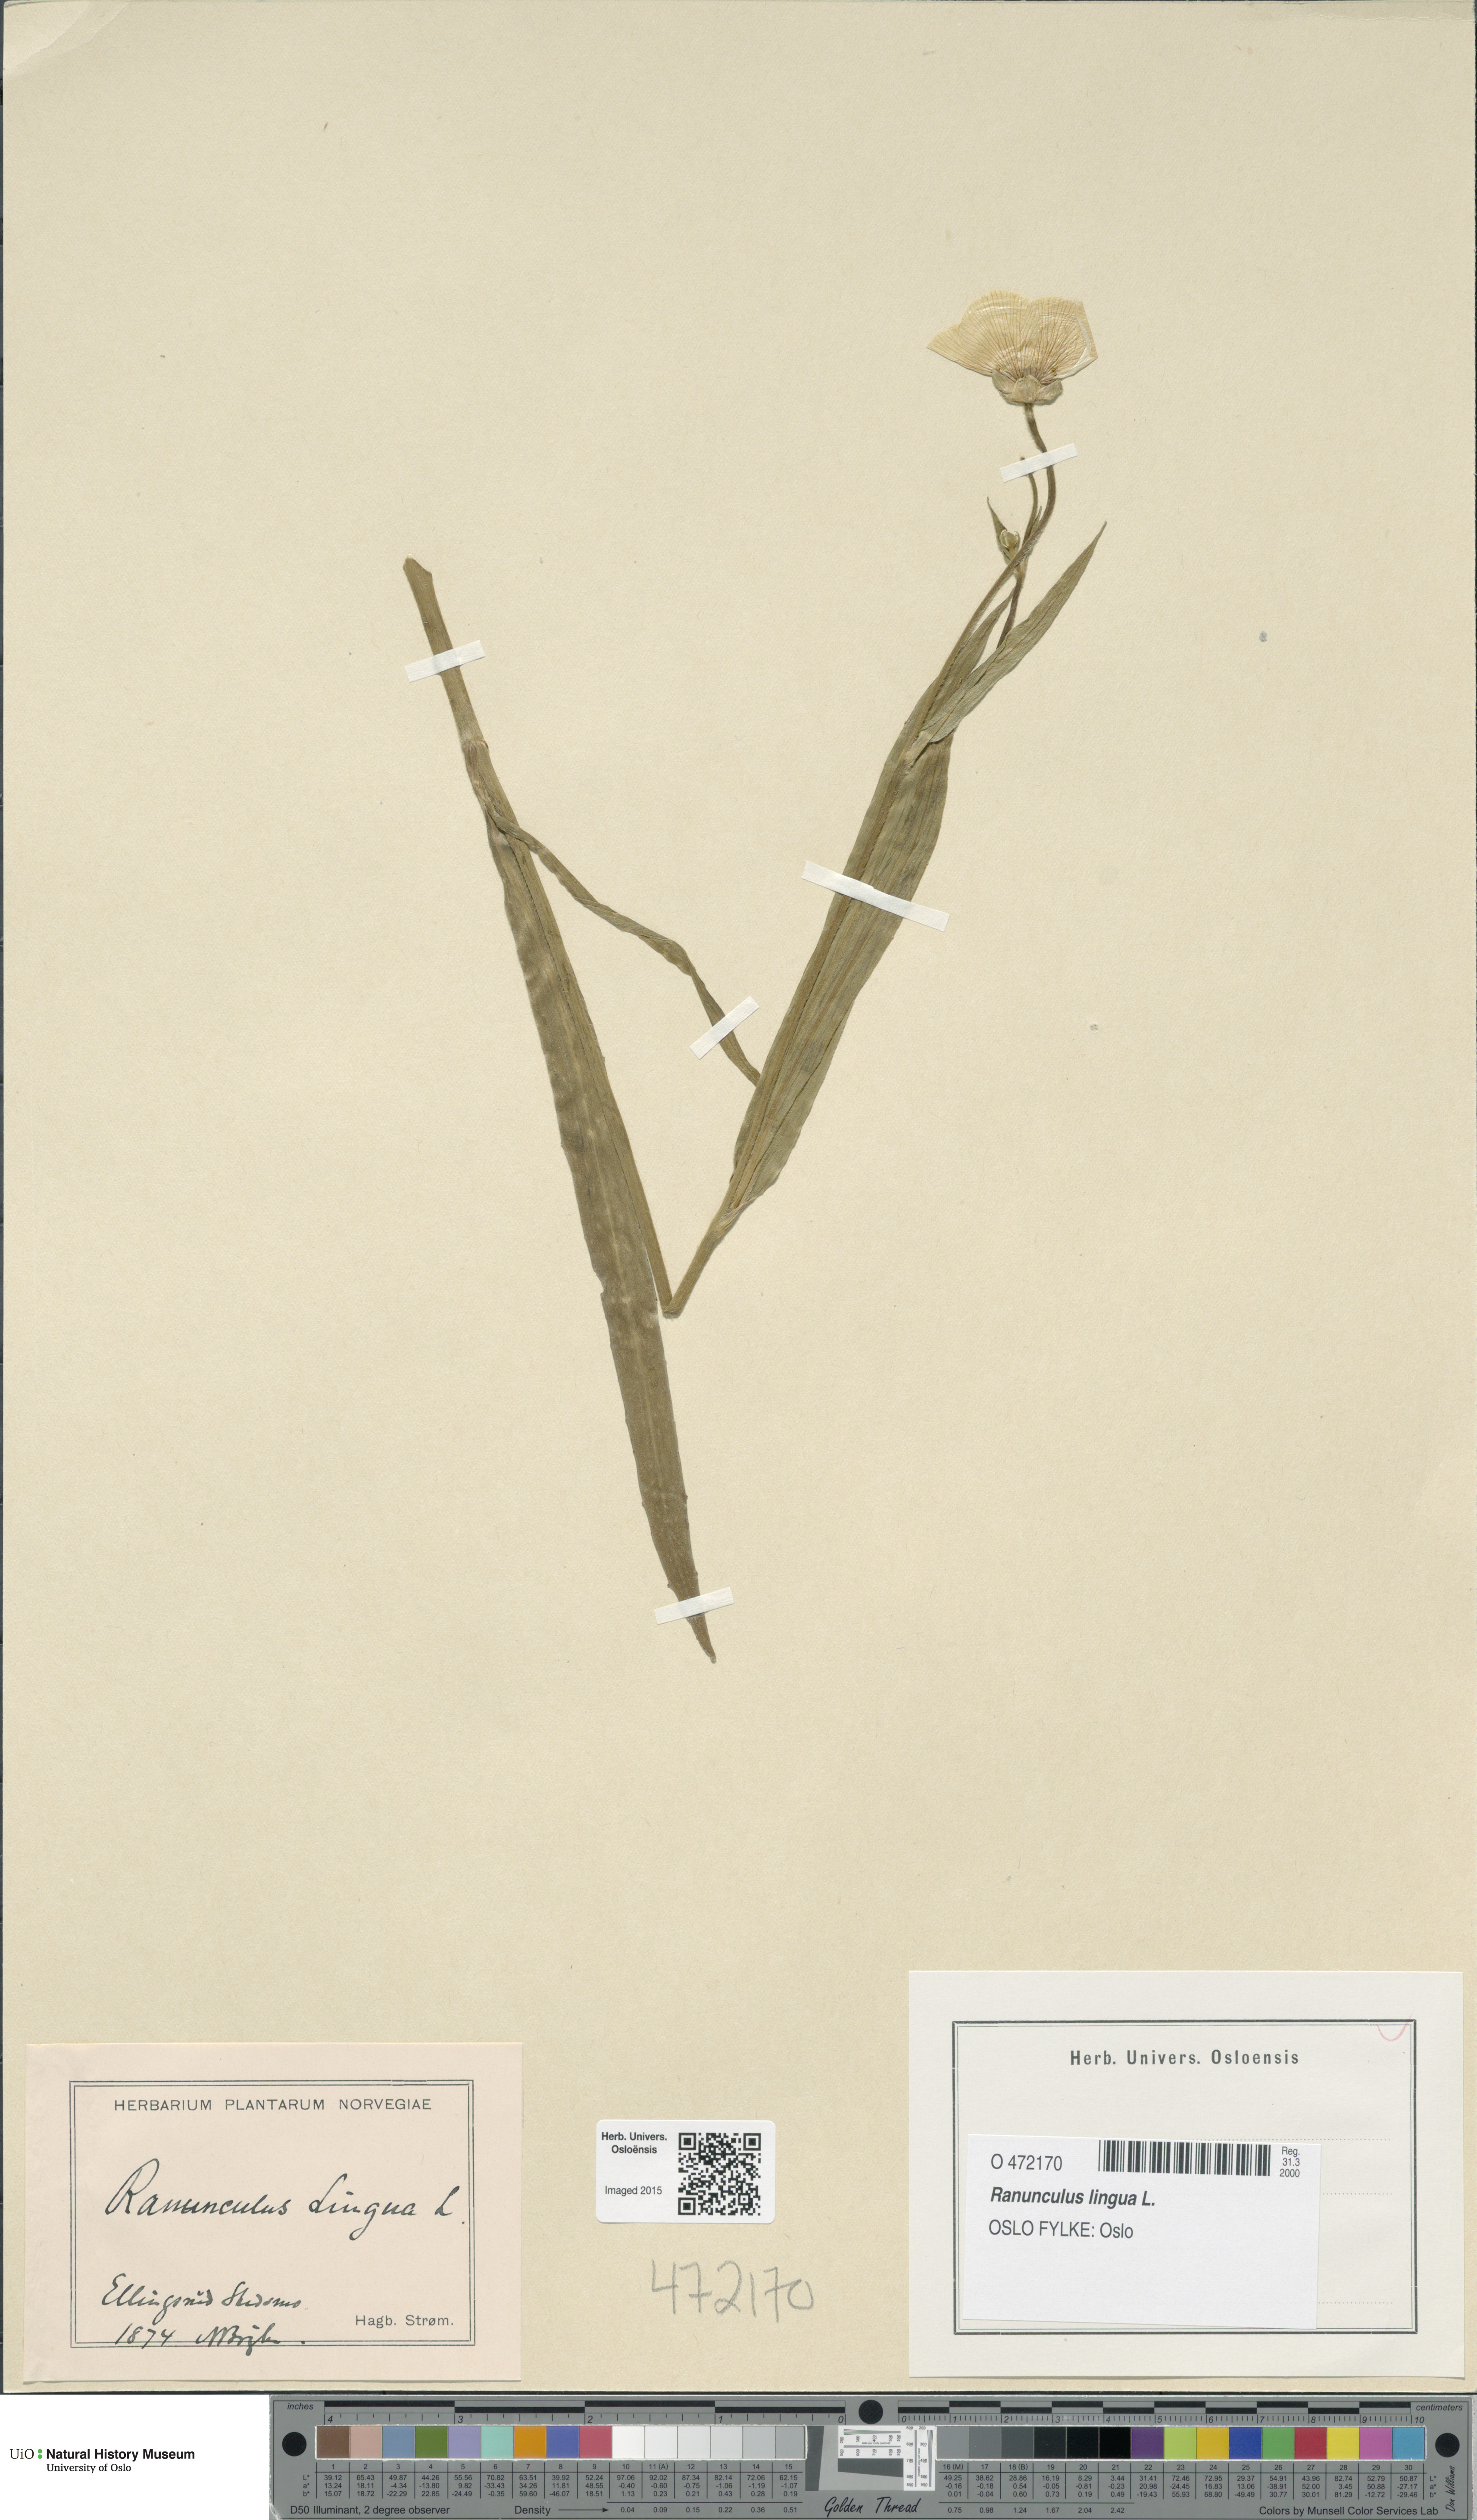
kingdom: Plantae
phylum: Tracheophyta
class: Magnoliopsida
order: Ranunculales
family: Ranunculaceae
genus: Ranunculus
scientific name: Ranunculus lingua
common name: Greater spearwort
